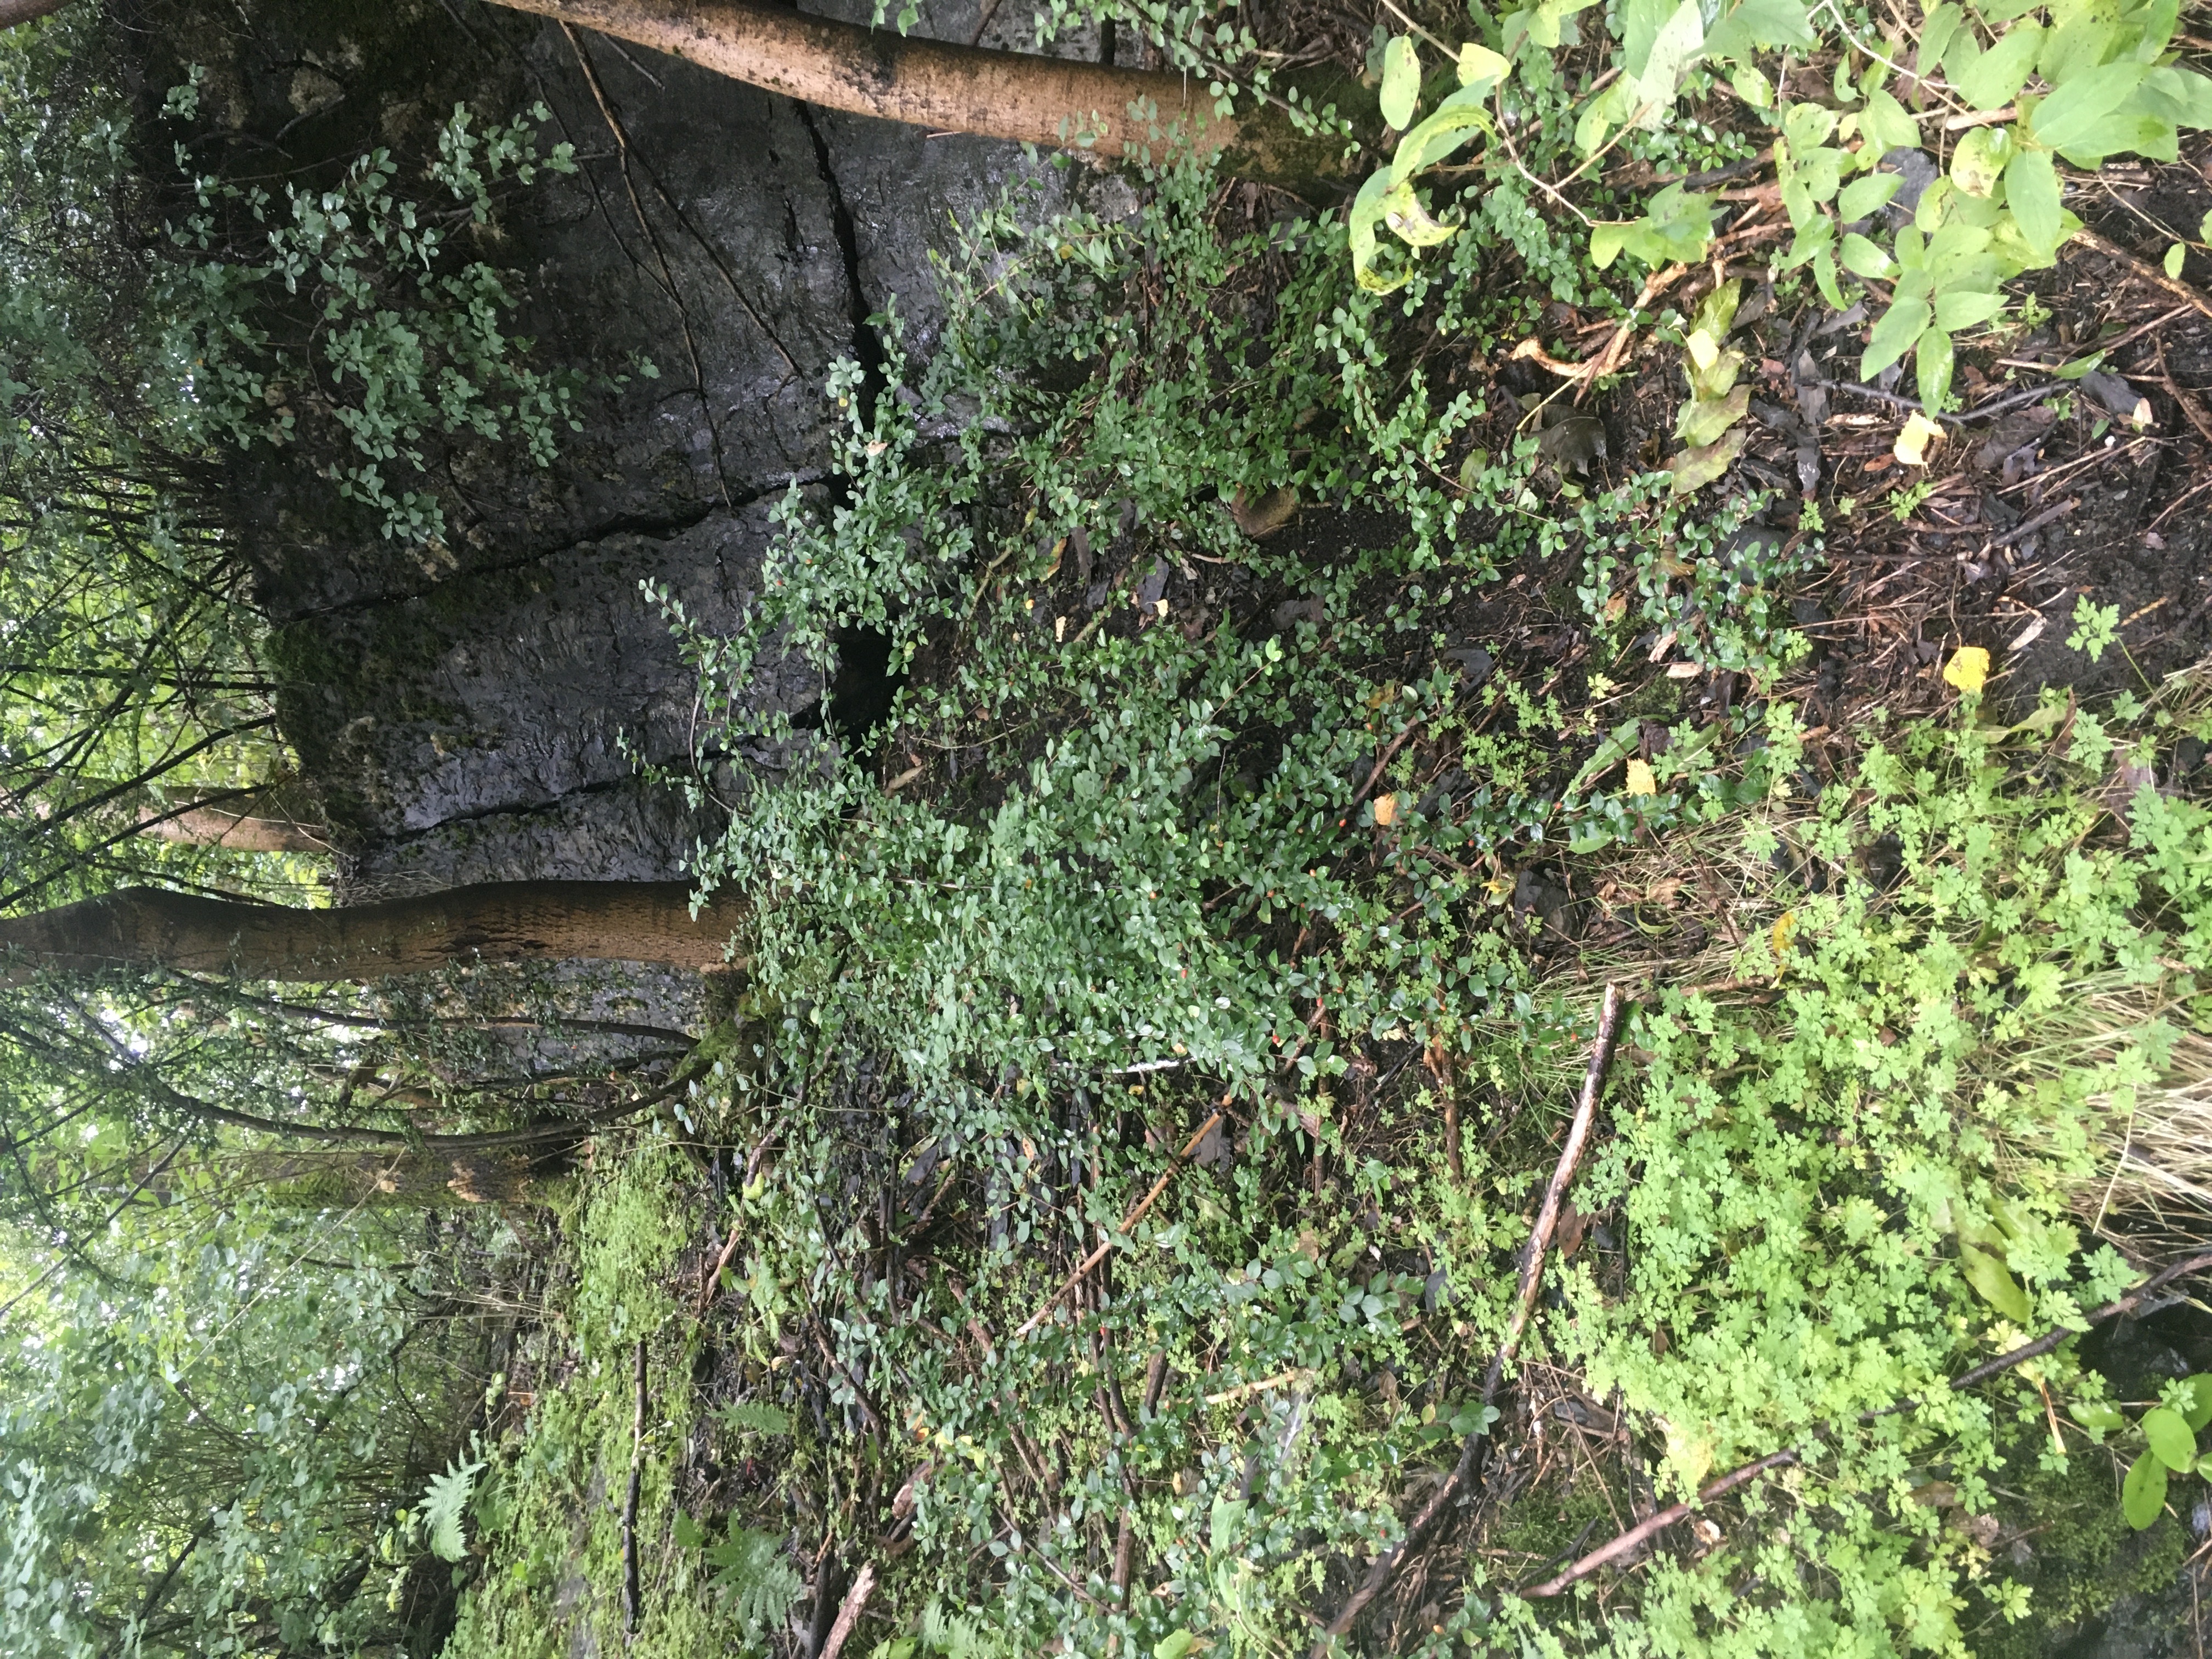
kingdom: Plantae
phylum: Tracheophyta
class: Magnoliopsida
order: Rosales
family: Rosaceae
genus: Cotoneaster
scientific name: Cotoneaster divaricatus
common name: sprikemispel
